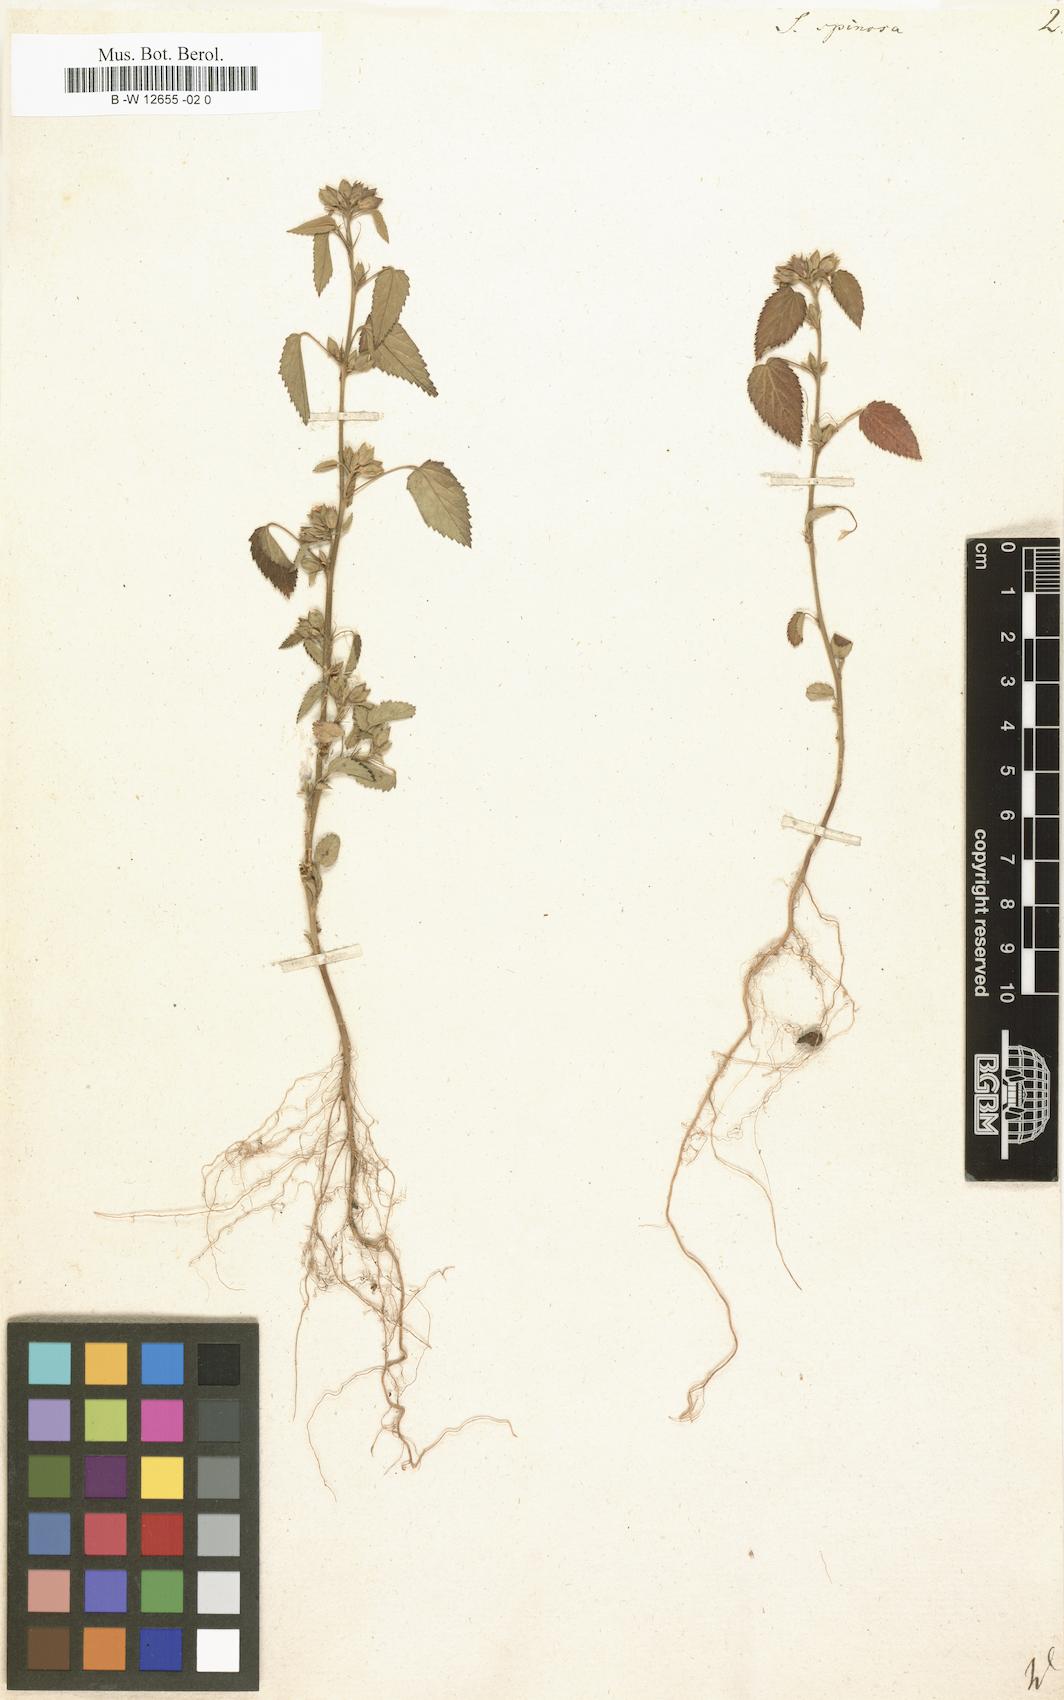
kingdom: Plantae
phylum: Tracheophyta
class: Magnoliopsida
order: Malvales
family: Malvaceae
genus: Sida
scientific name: Sida spinosa
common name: Prickly fanpetals
